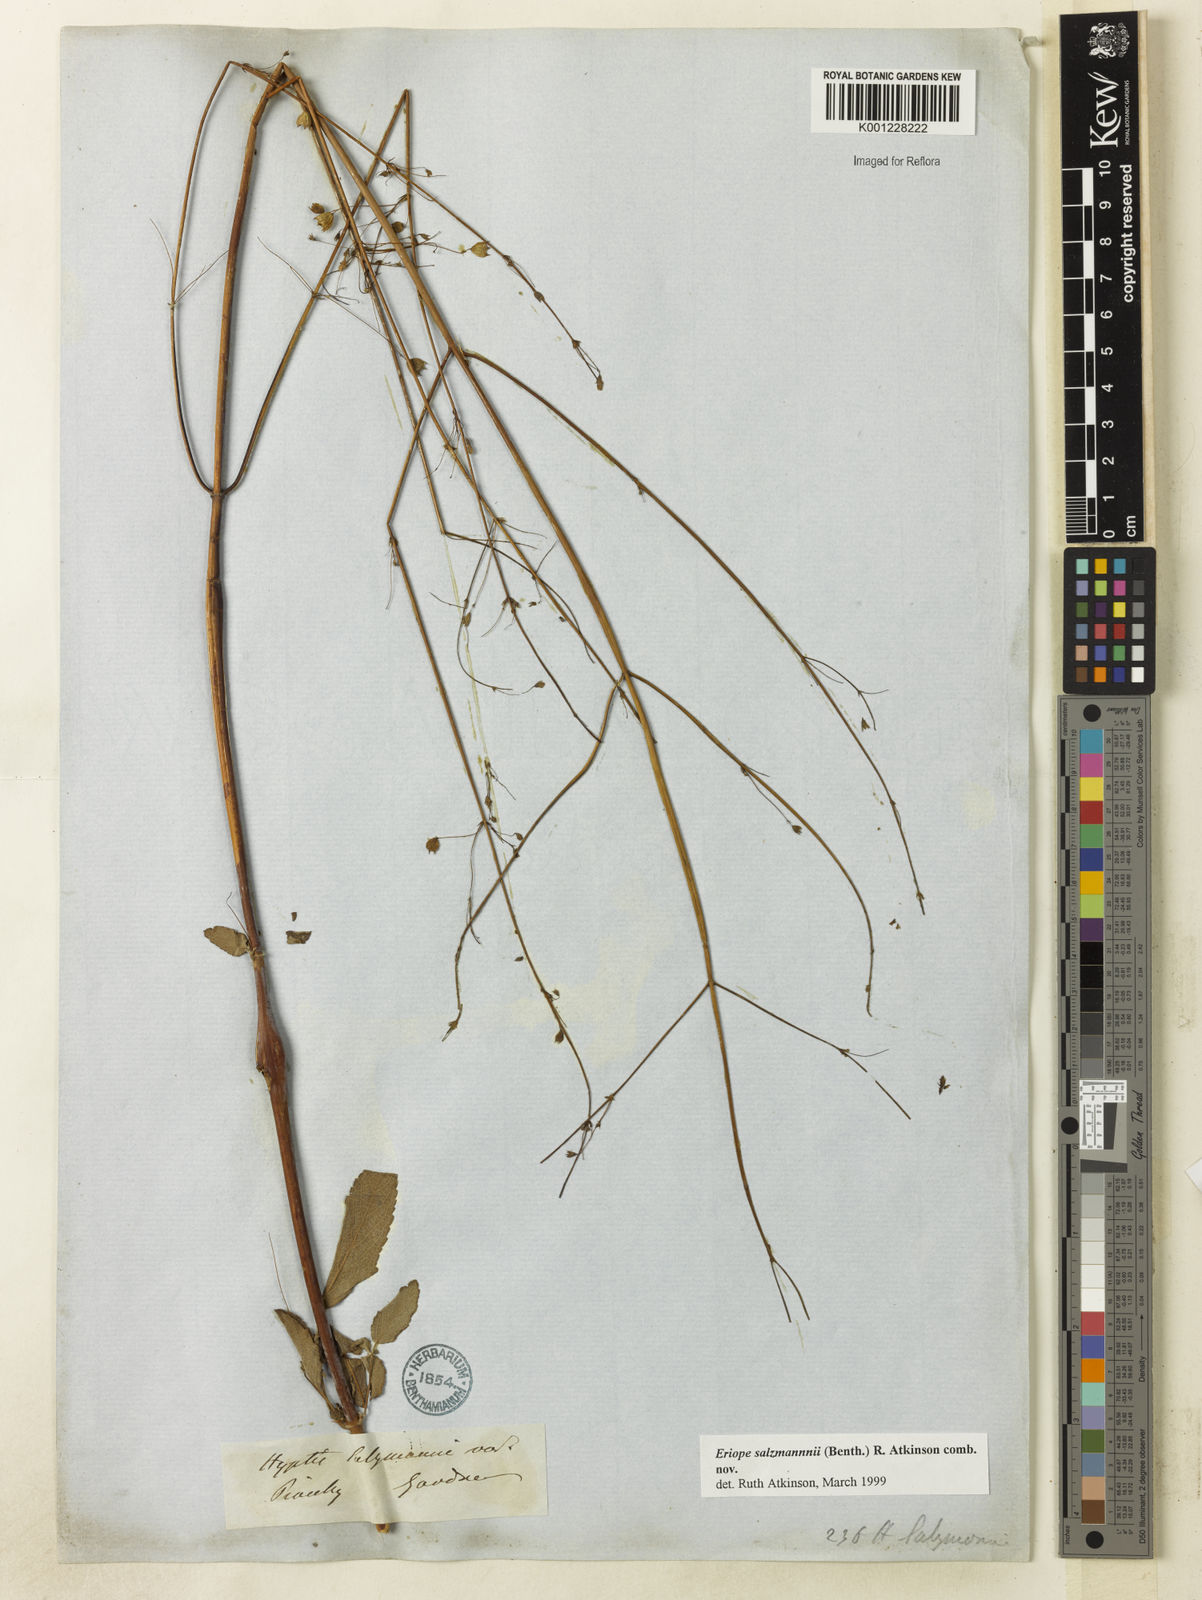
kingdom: Plantae
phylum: Tracheophyta
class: Magnoliopsida
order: Lamiales
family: Lamiaceae
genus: Hypenia
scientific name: Hypenia salzmannii
